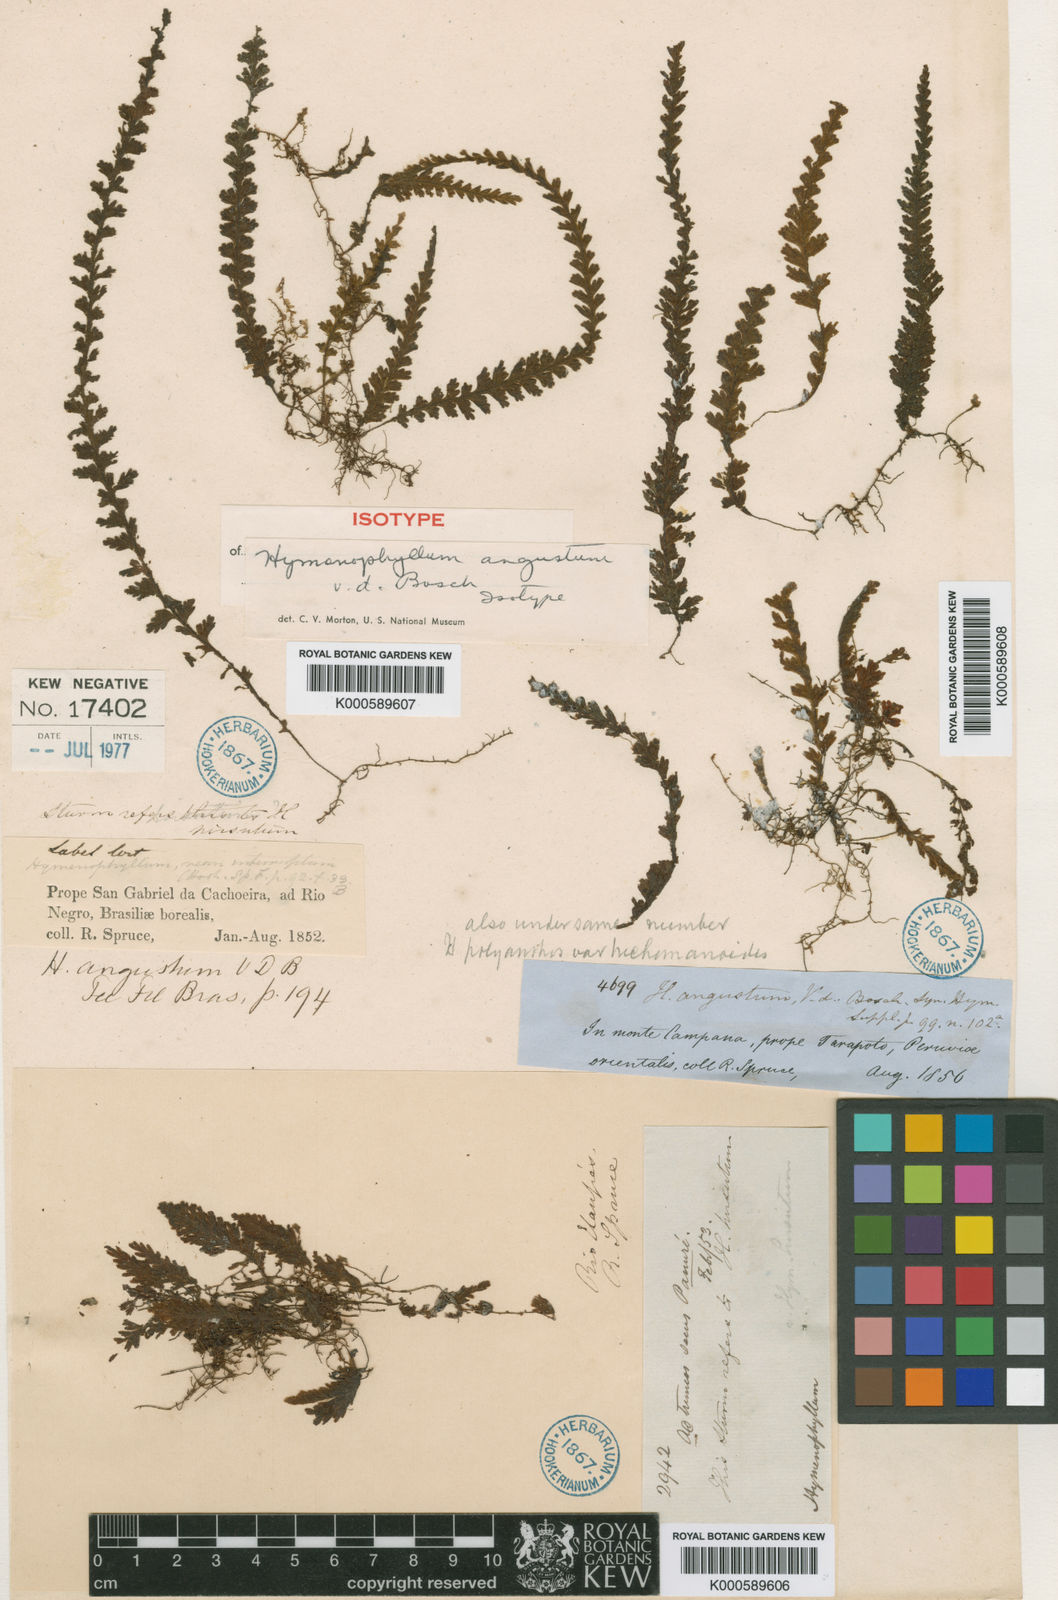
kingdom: Plantae
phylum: Tracheophyta
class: Polypodiopsida
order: Hymenophyllales
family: Hymenophyllaceae
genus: Hymenophyllum
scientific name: Hymenophyllum angustum
